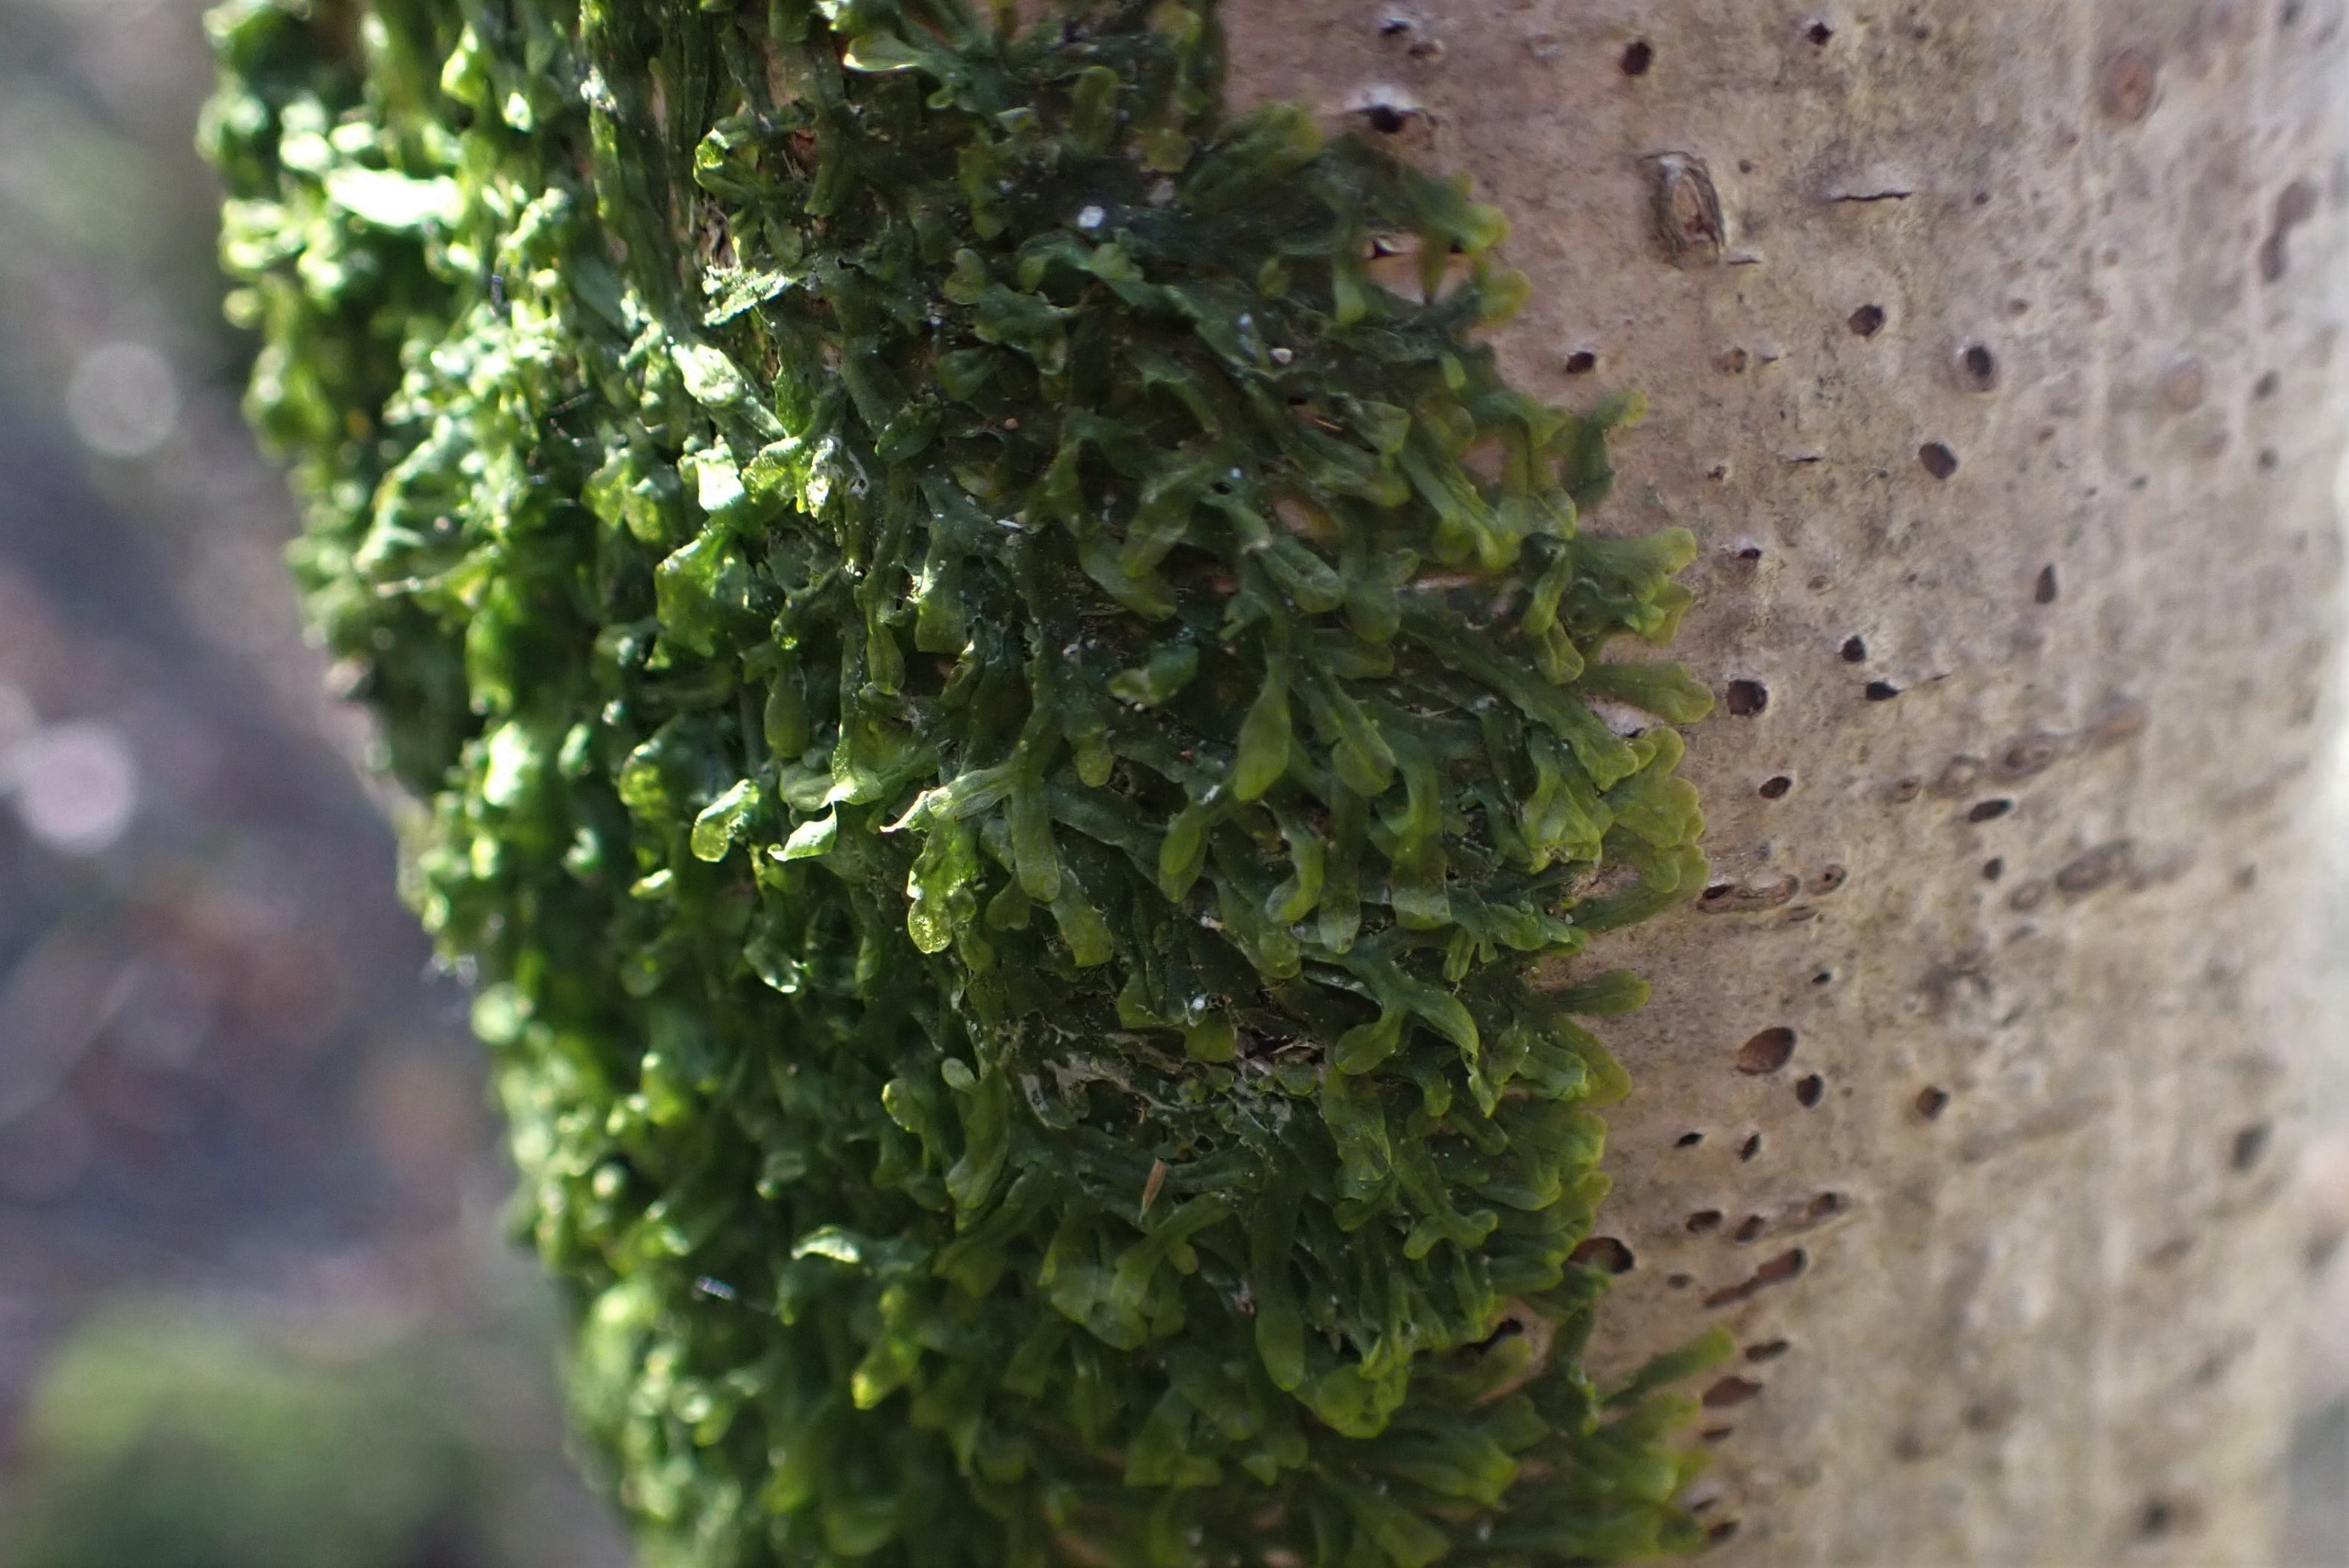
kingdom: Plantae
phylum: Marchantiophyta
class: Jungermanniopsida
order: Metzgeriales
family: Metzgeriaceae
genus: Metzgeria
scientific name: Metzgeria furcata
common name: Almindelig gaffelløv
